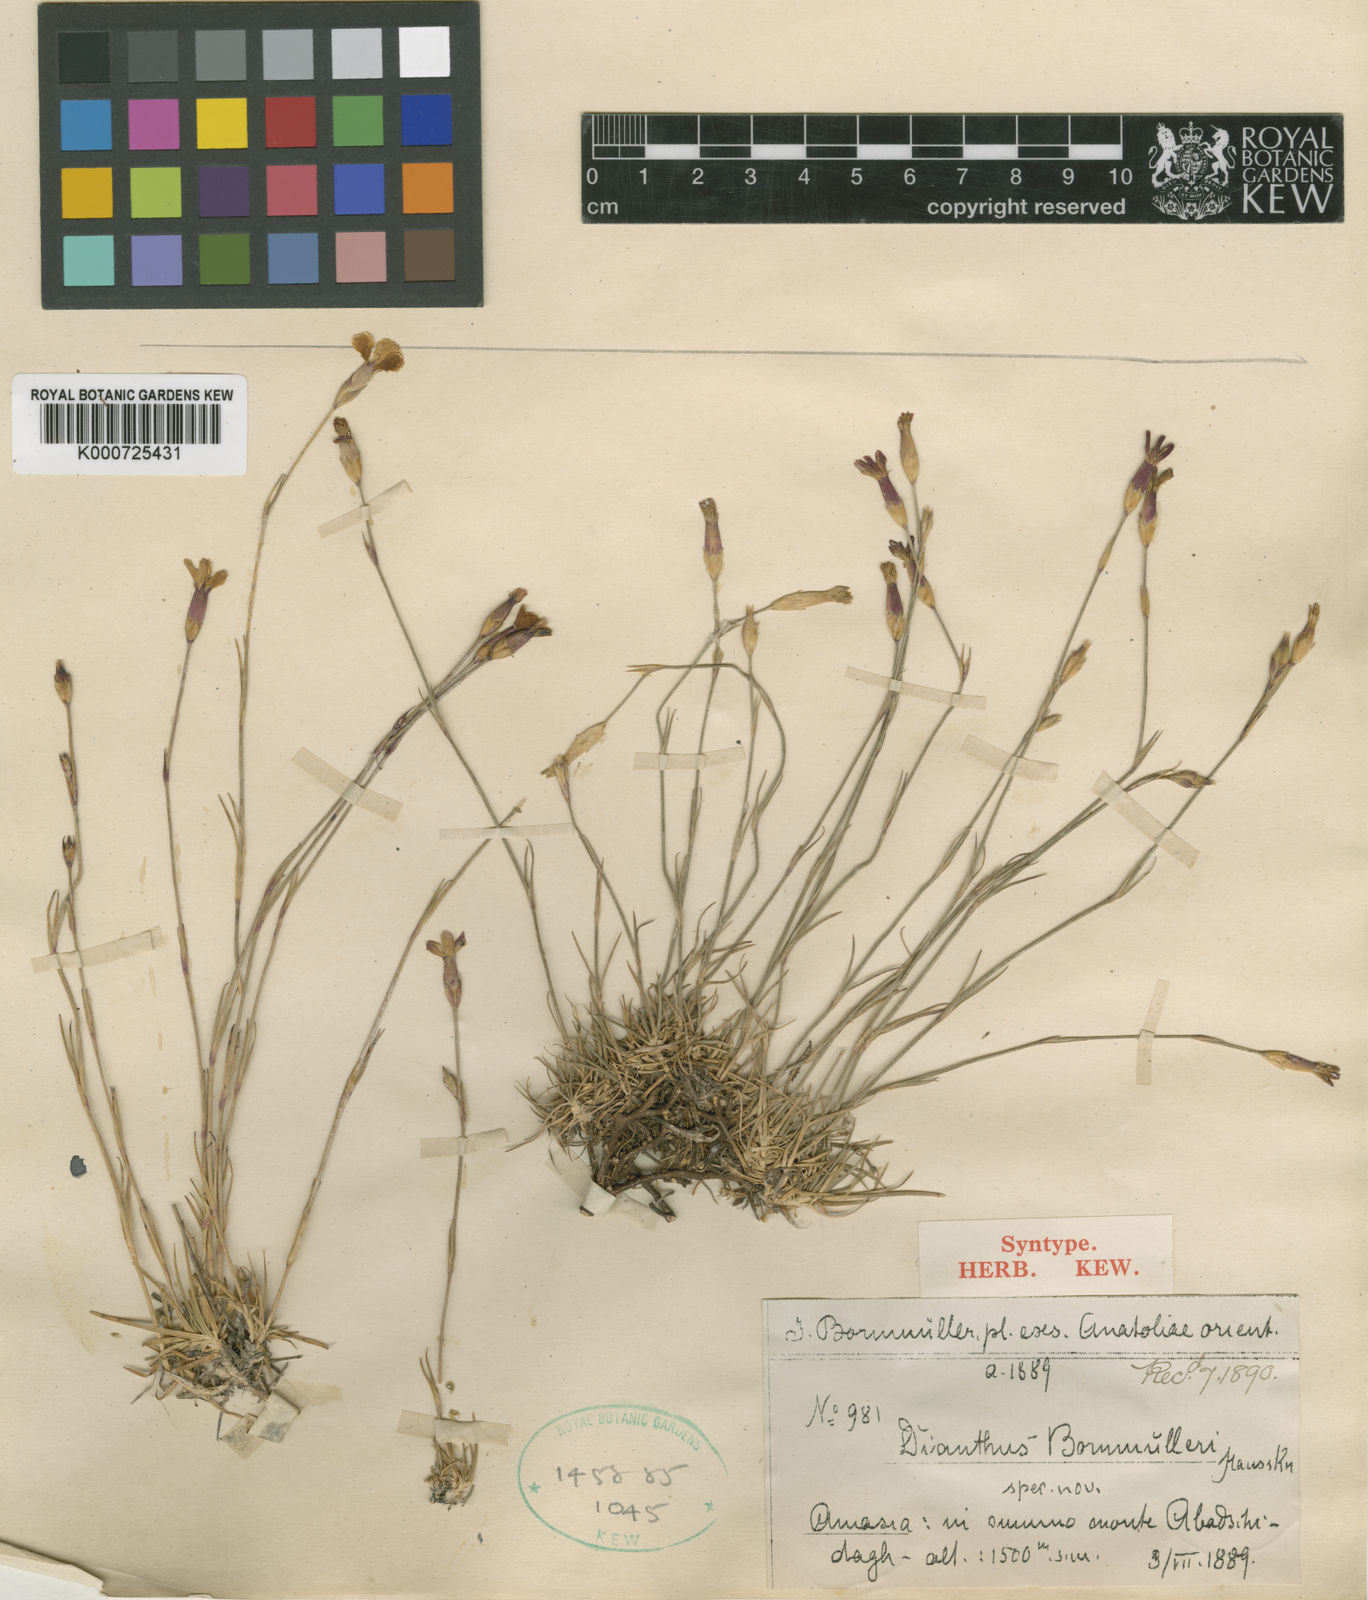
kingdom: Plantae
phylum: Tracheophyta
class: Magnoliopsida
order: Caryophyllales
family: Caryophyllaceae
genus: Dianthus
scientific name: Dianthus micranthus
